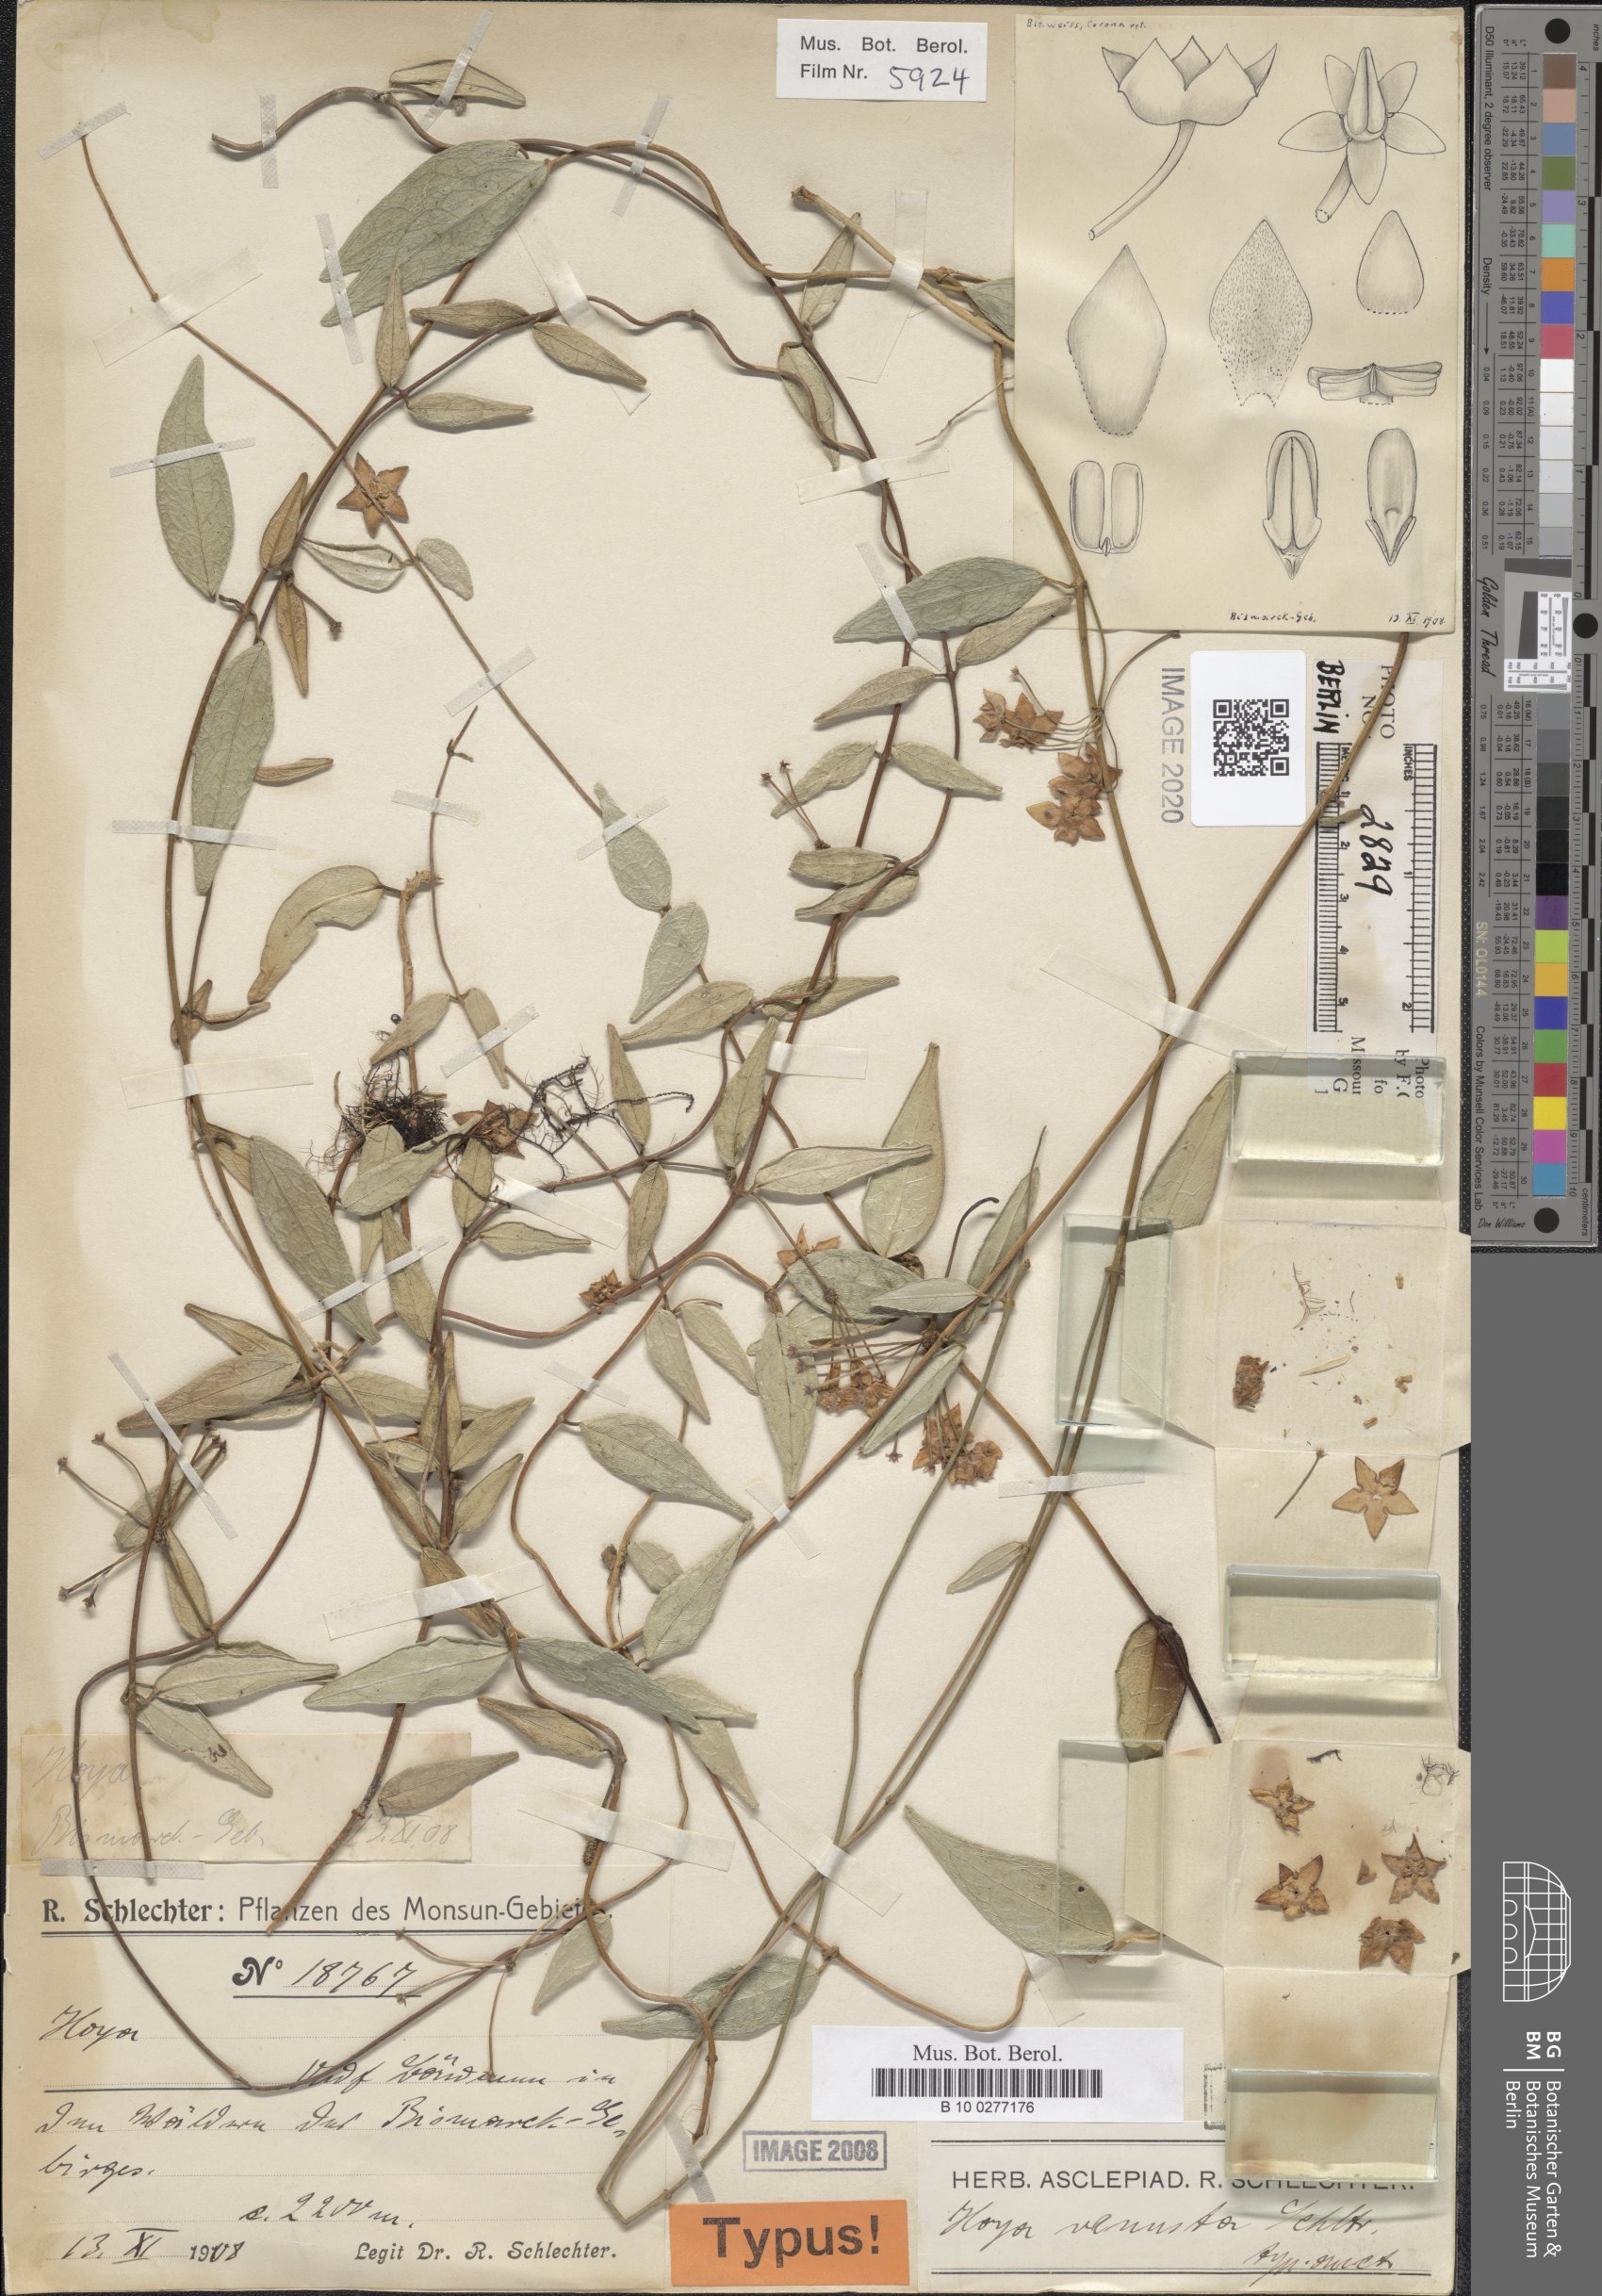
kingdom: Plantae
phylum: Tracheophyta
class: Magnoliopsida
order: Gentianales
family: Apocynaceae
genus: Hoya
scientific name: Hoya venusta
